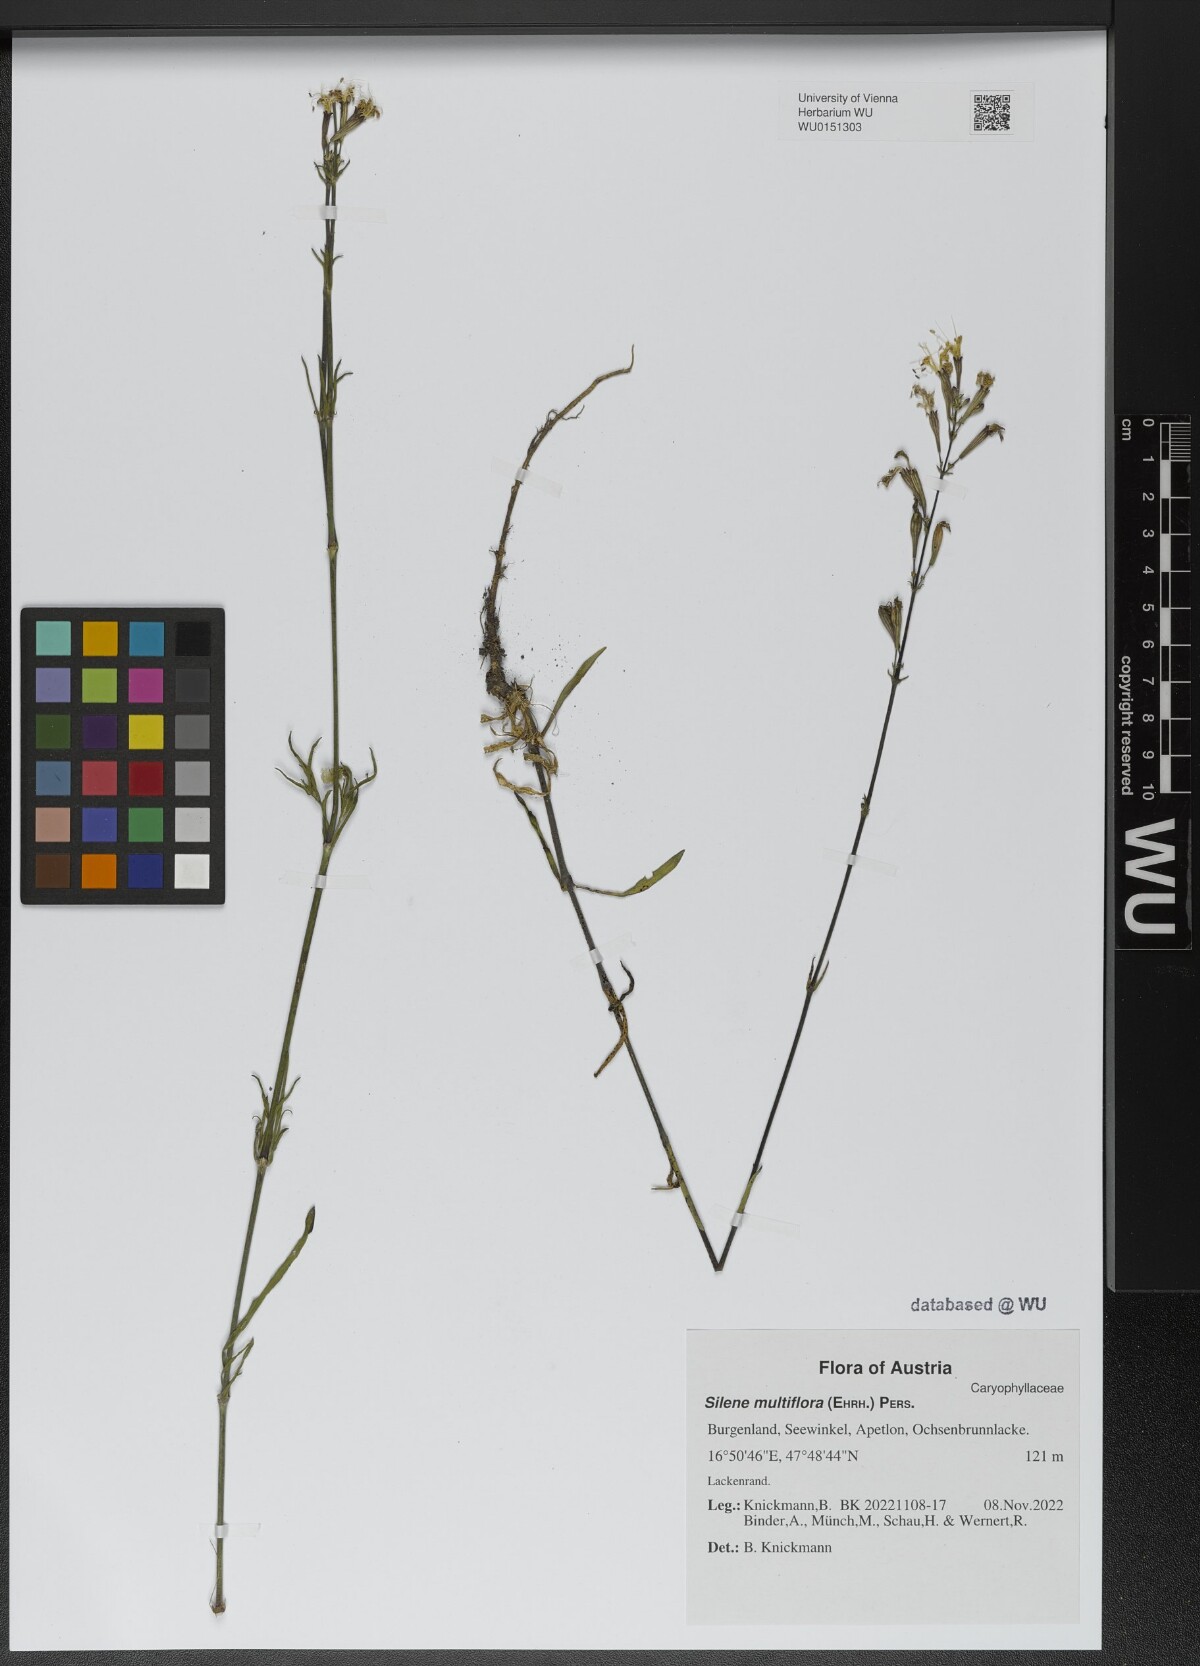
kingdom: Plantae
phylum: Tracheophyta
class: Magnoliopsida
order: Caryophyllales
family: Caryophyllaceae
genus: Silene
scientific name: Silene multiflora
